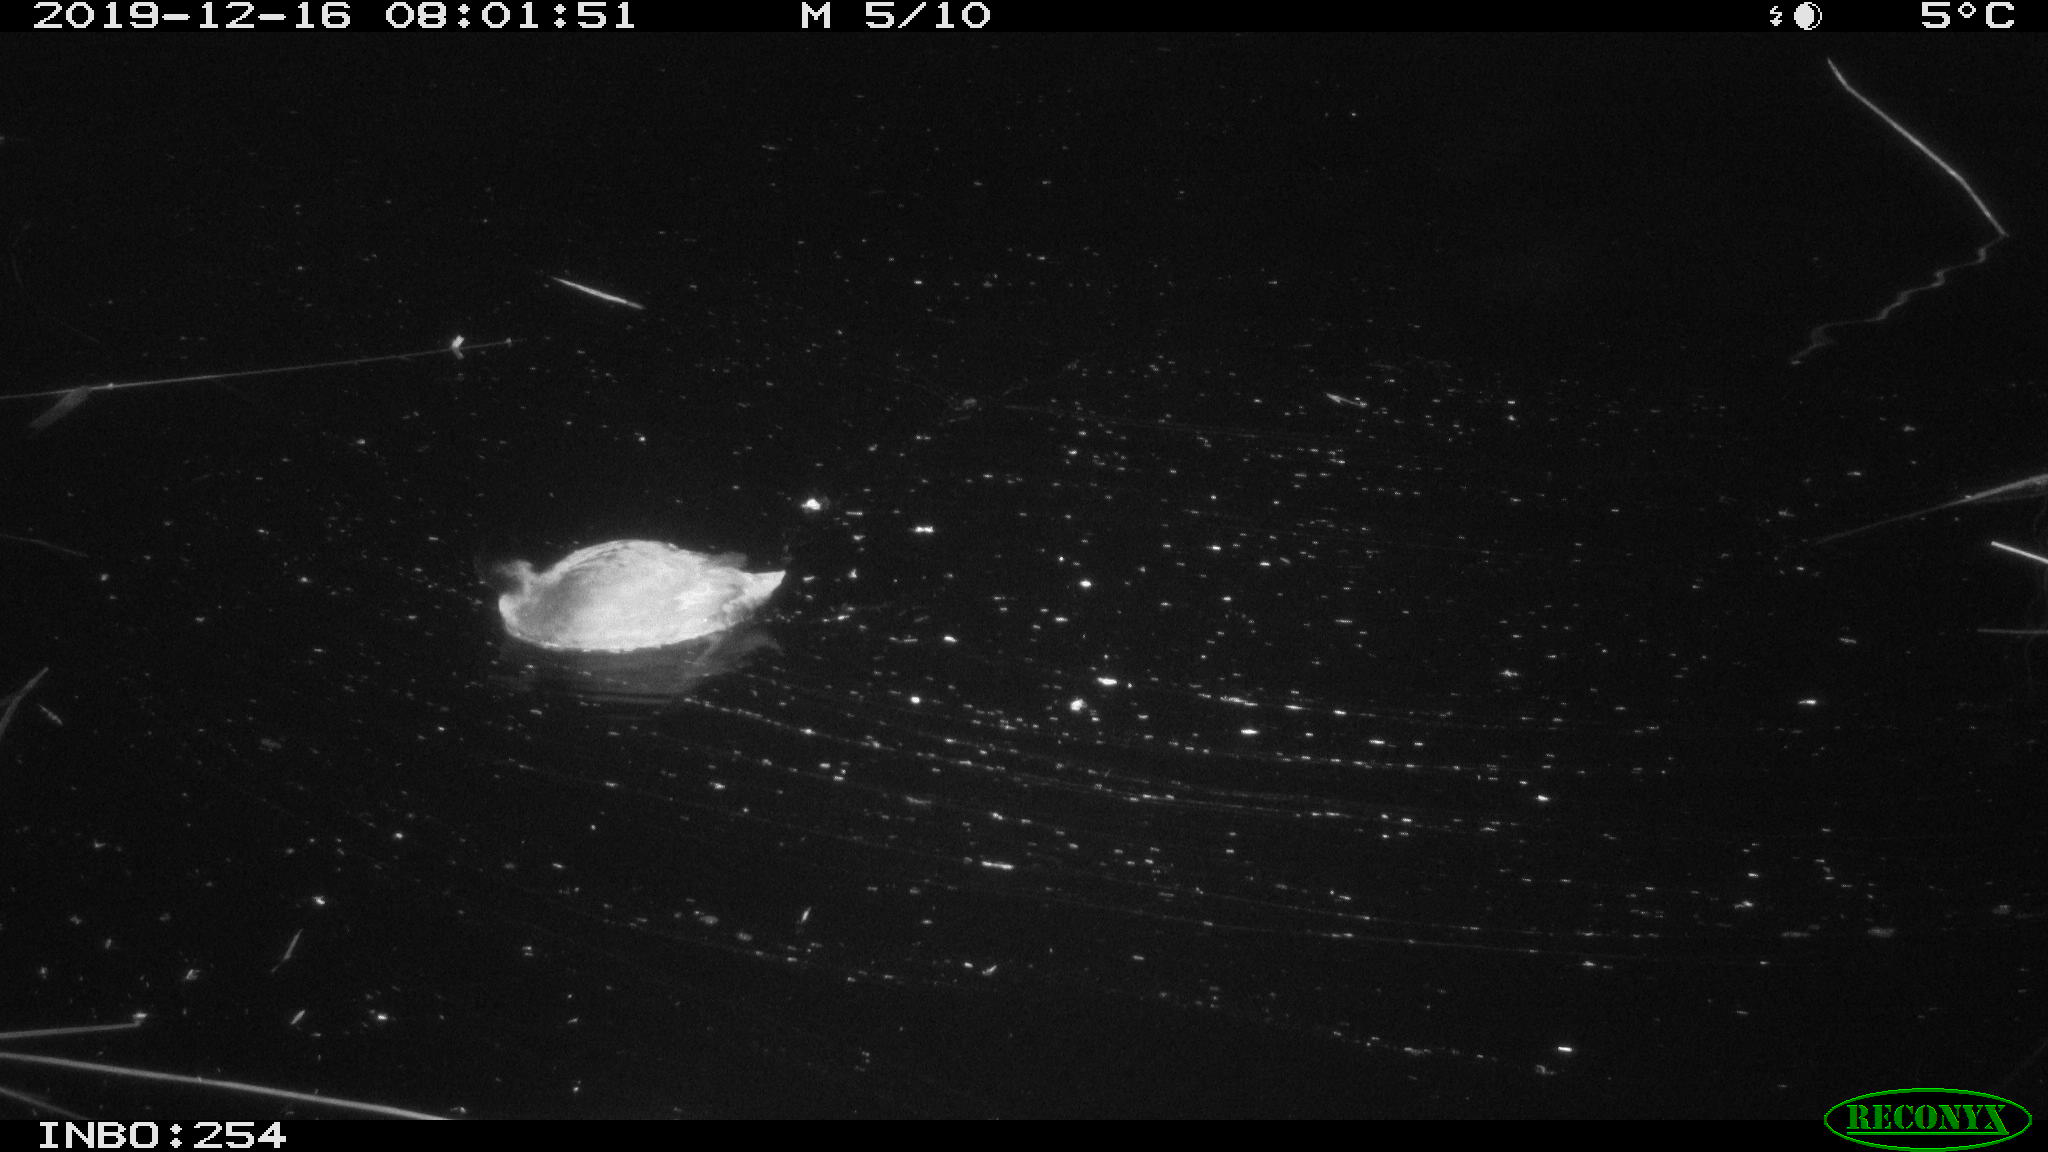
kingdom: Animalia
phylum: Chordata
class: Aves
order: Gruiformes
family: Rallidae
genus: Fulica
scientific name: Fulica atra
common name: Eurasian coot
